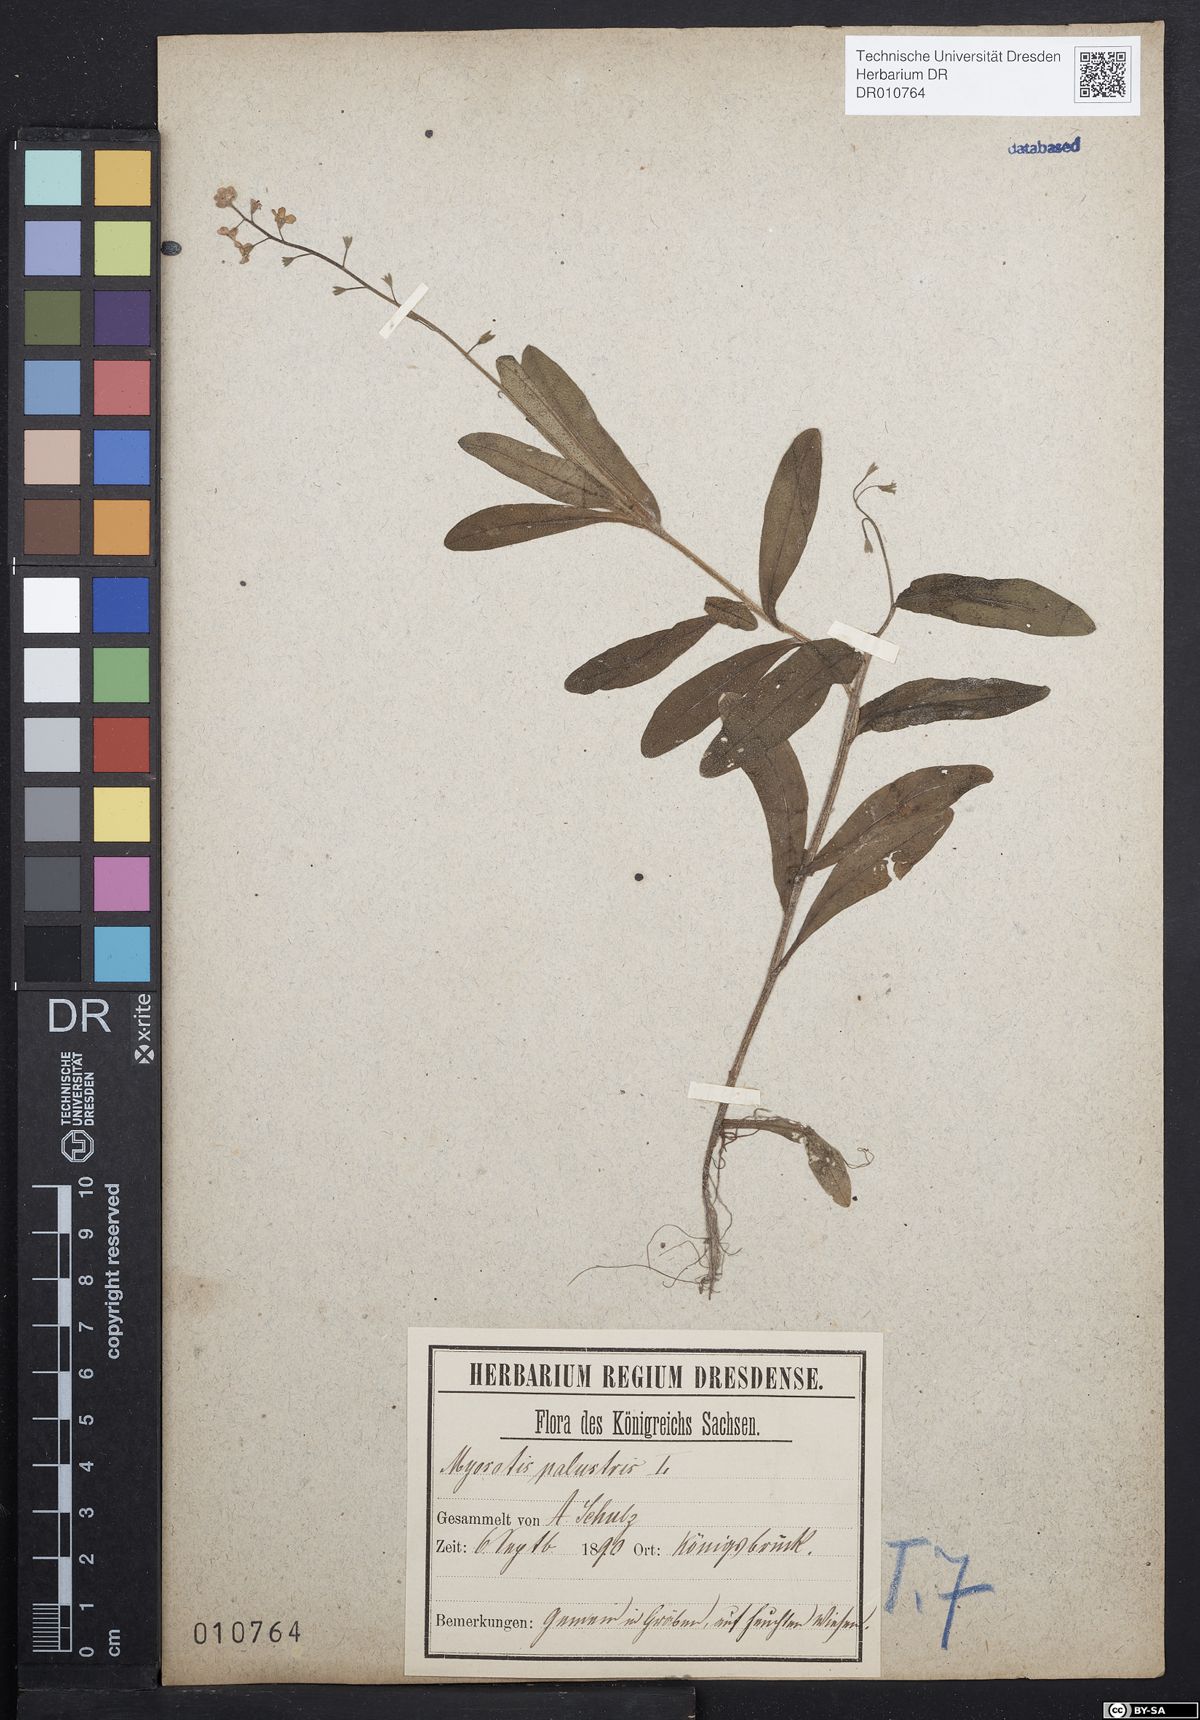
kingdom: Plantae
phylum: Tracheophyta
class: Magnoliopsida
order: Boraginales
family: Boraginaceae
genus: Myosotis
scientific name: Myosotis scorpioides
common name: Water forget-me-not
